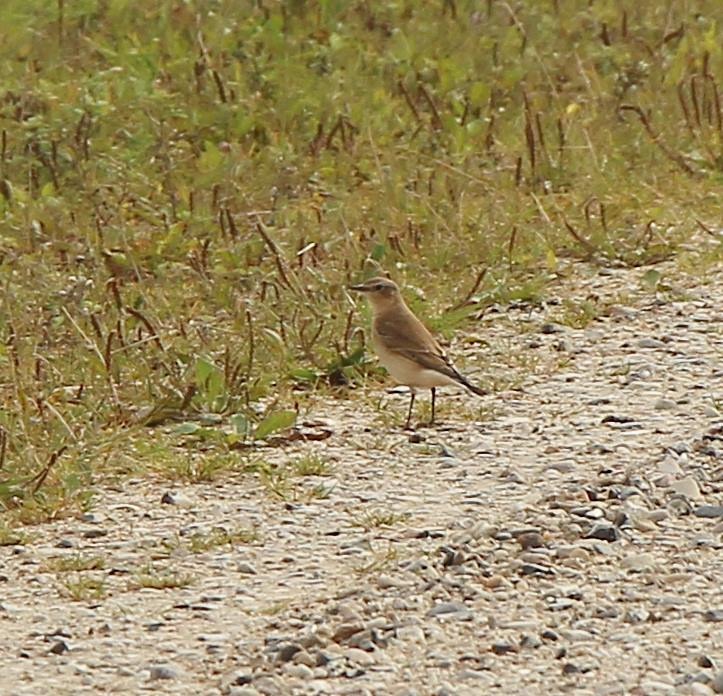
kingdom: Animalia
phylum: Chordata
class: Aves
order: Passeriformes
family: Muscicapidae
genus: Oenanthe
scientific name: Oenanthe oenanthe
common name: Stenpikker
